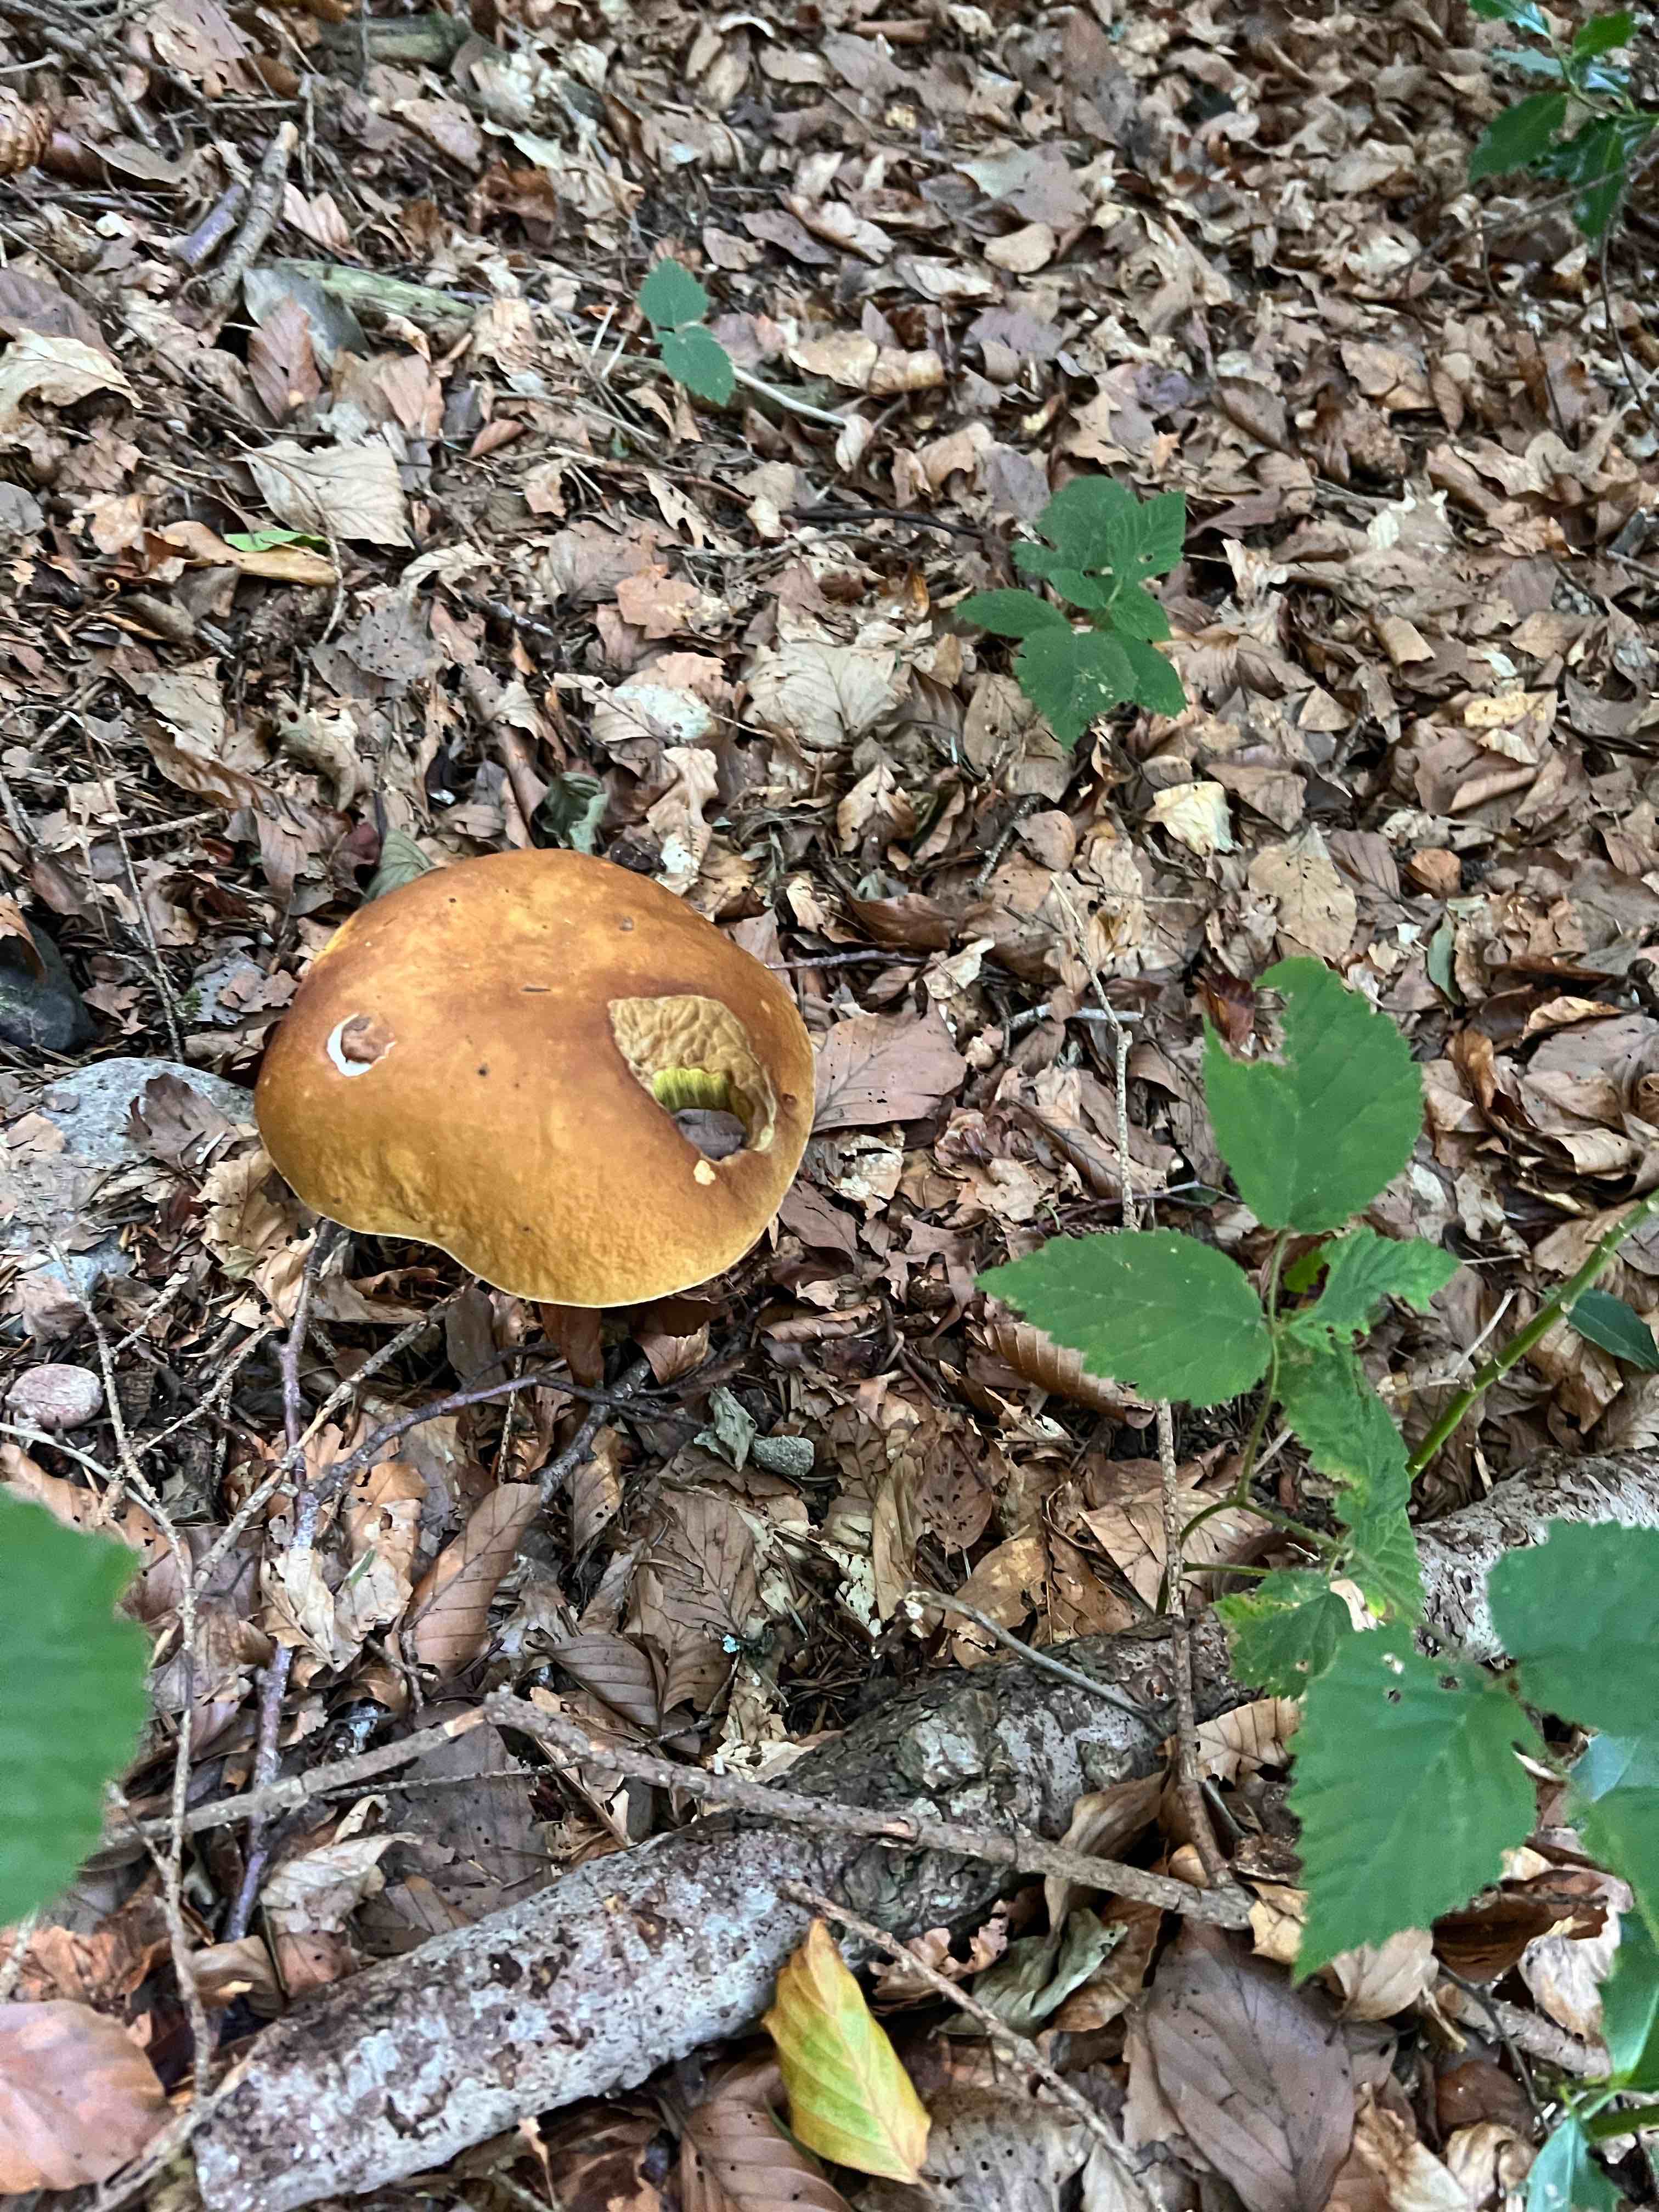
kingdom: Fungi
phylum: Basidiomycota
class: Agaricomycetes
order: Boletales
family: Boletaceae
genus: Boletus
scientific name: Boletus edulis
